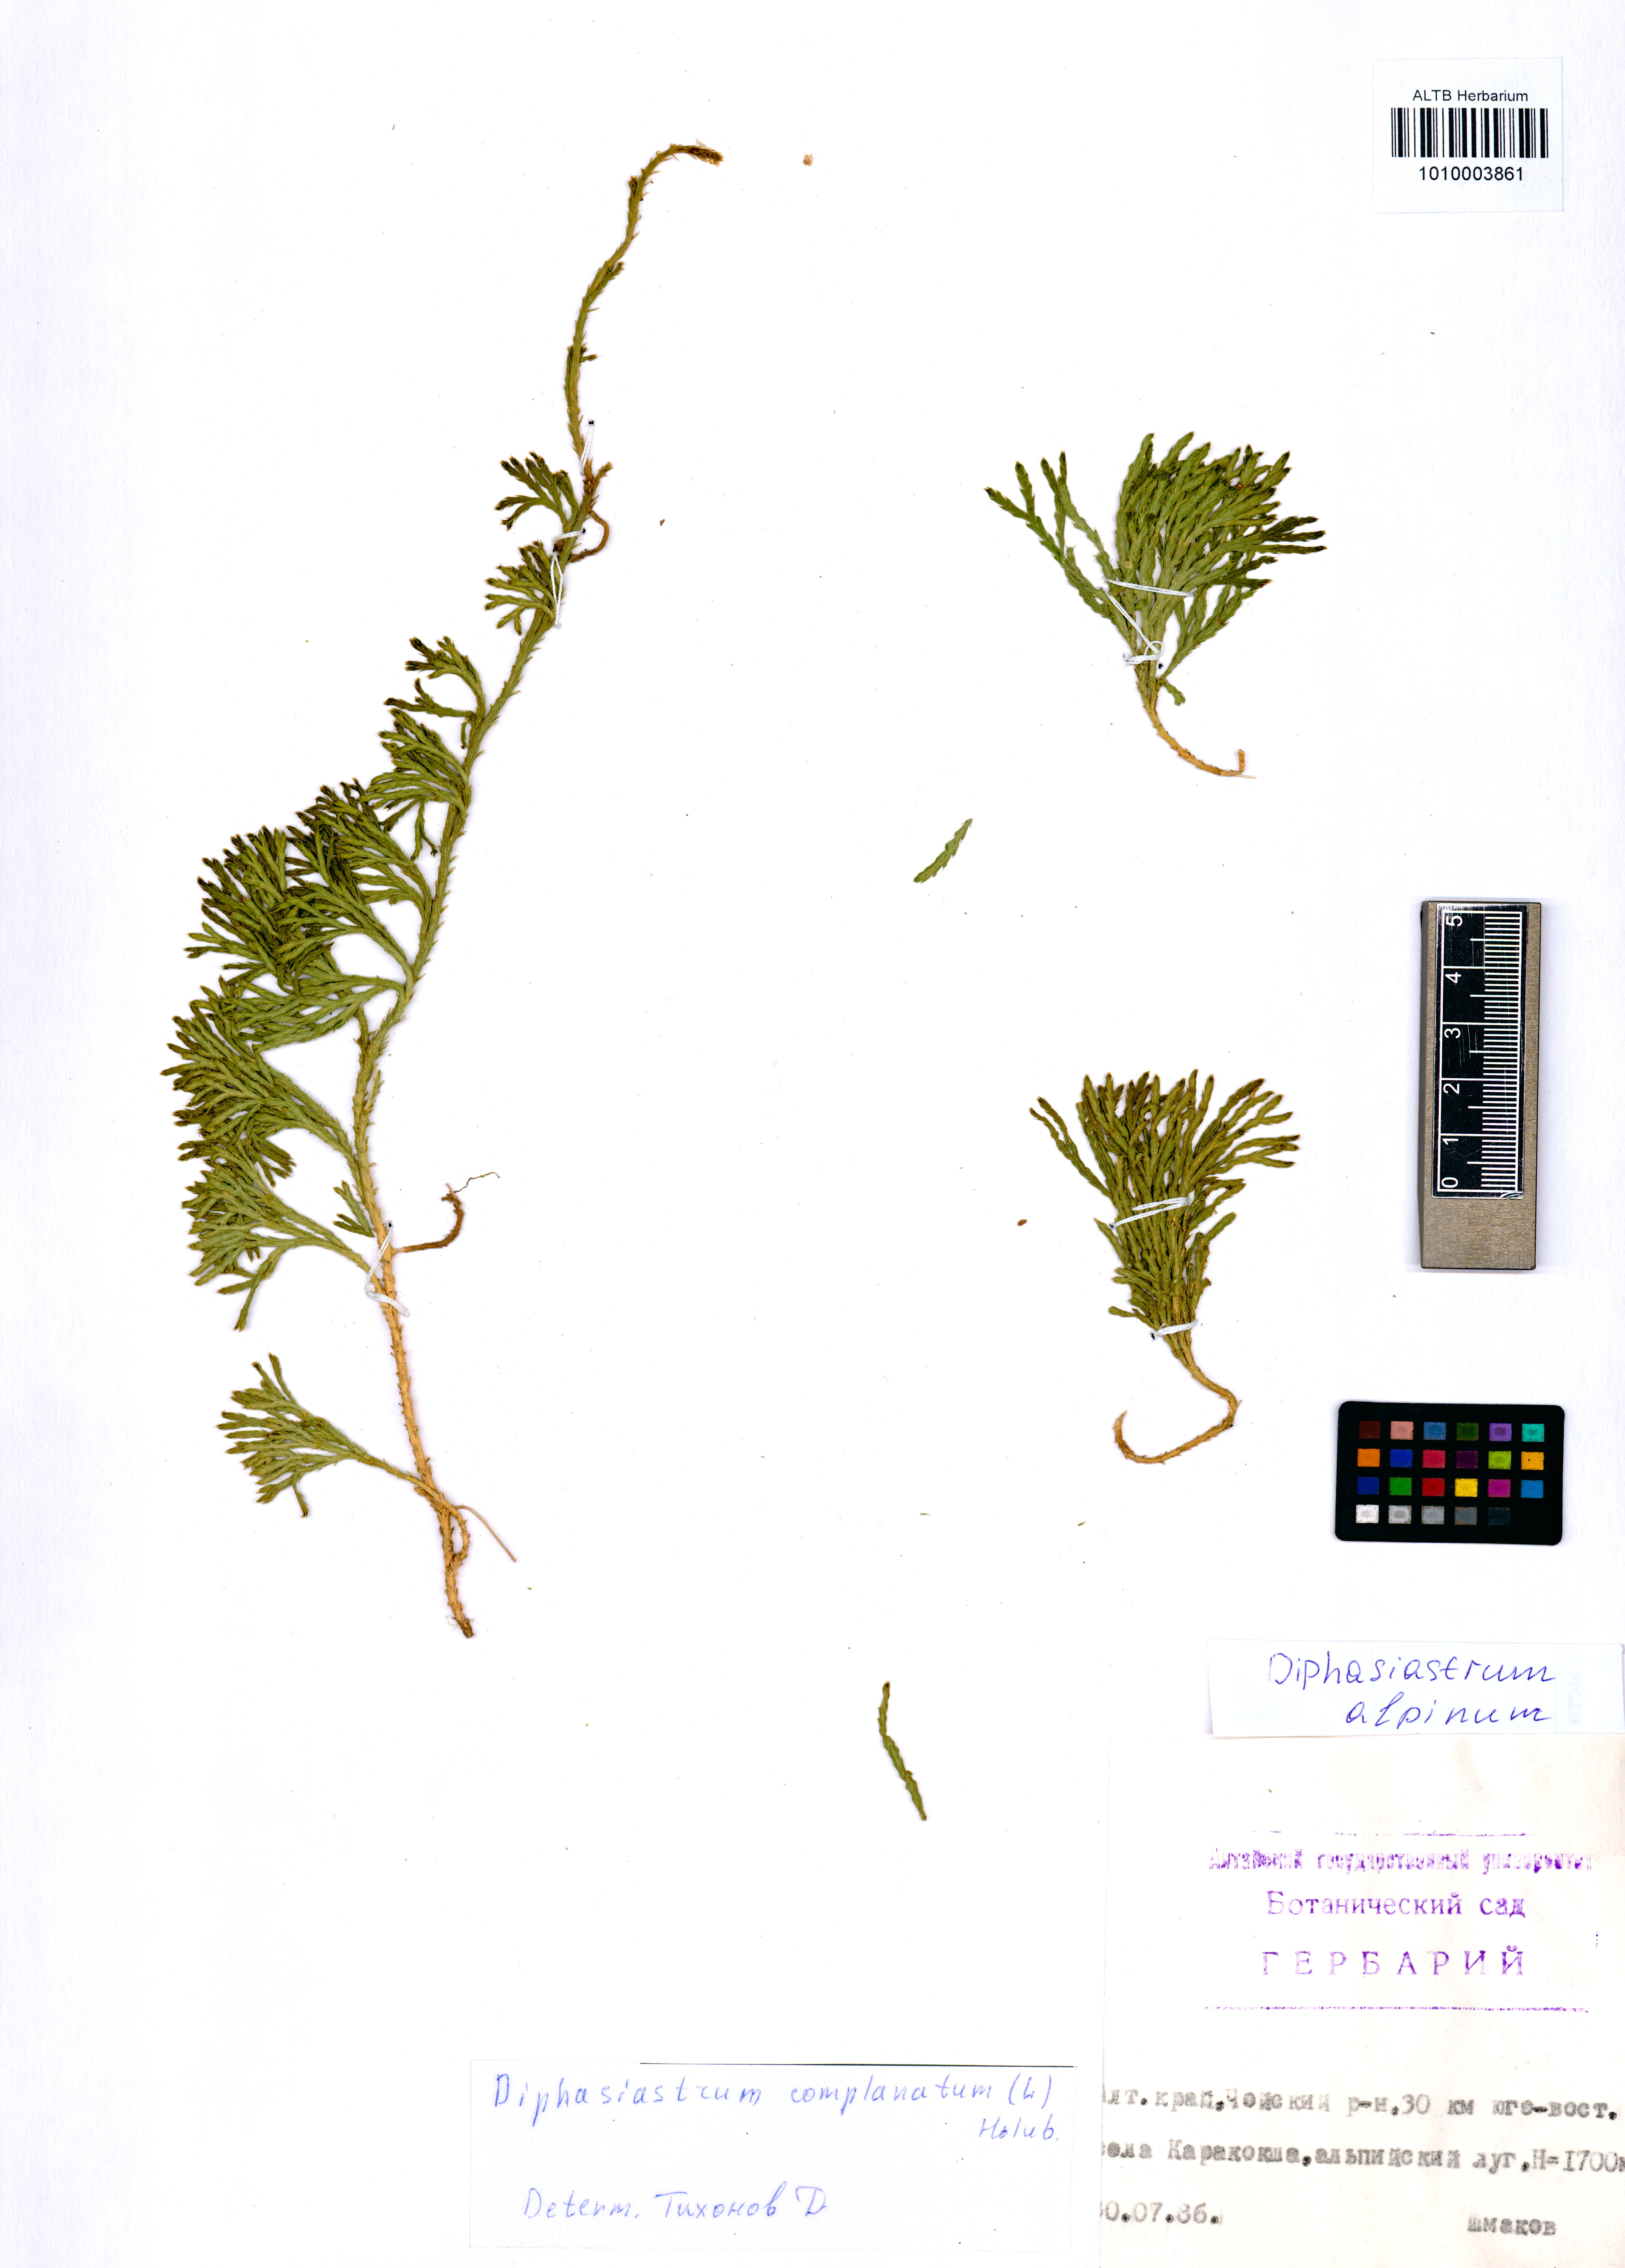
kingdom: Plantae
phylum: Tracheophyta
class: Lycopodiopsida
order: Lycopodiales
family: Lycopodiaceae
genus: Diphasiastrum
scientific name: Diphasiastrum alpinum
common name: Alpine clubmoss
